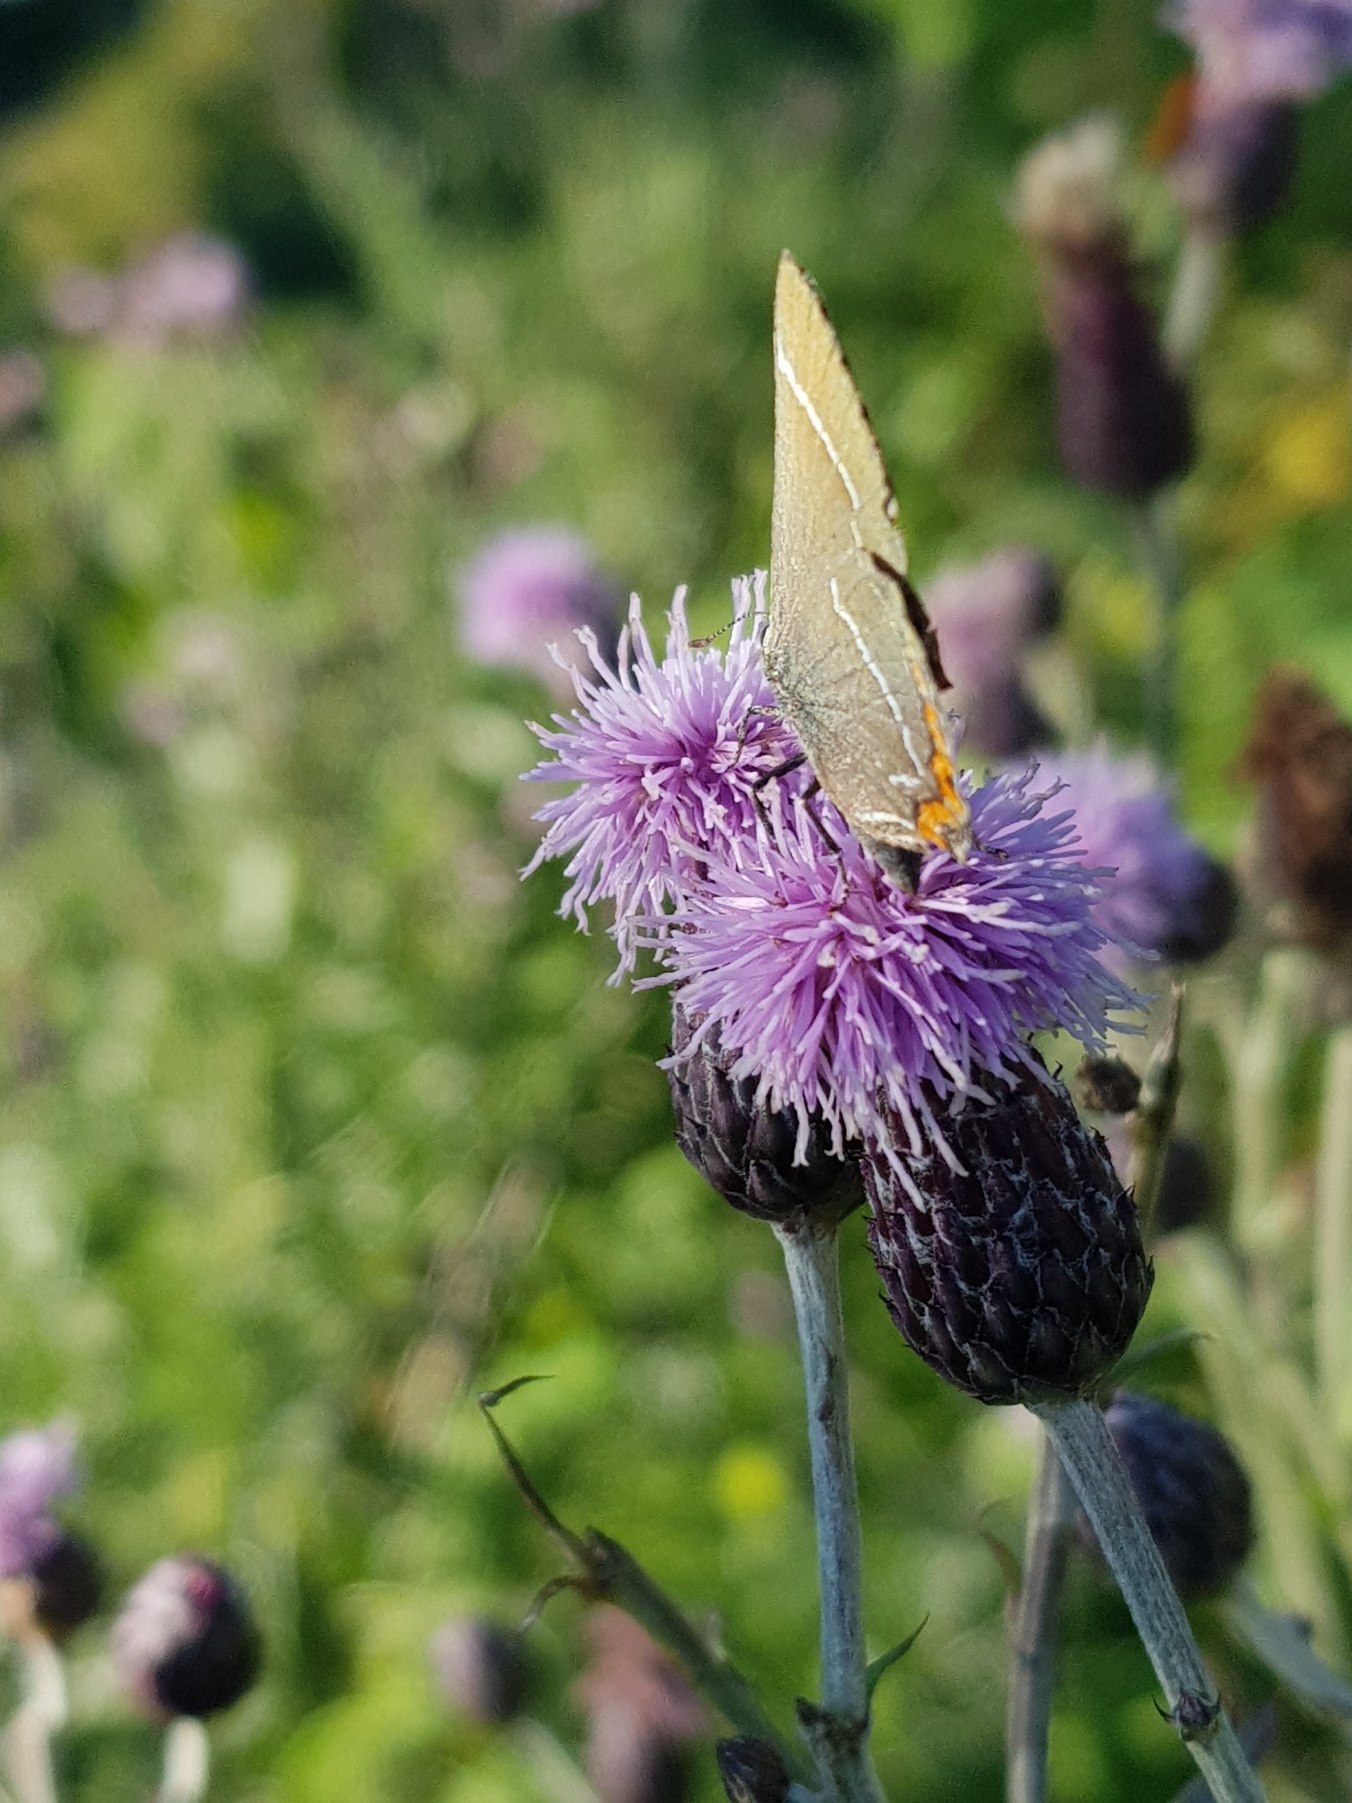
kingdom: Animalia
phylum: Arthropoda
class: Insecta
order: Lepidoptera
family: Lycaenidae
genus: Satyrium
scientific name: Satyrium w-album
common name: Det hvide W
